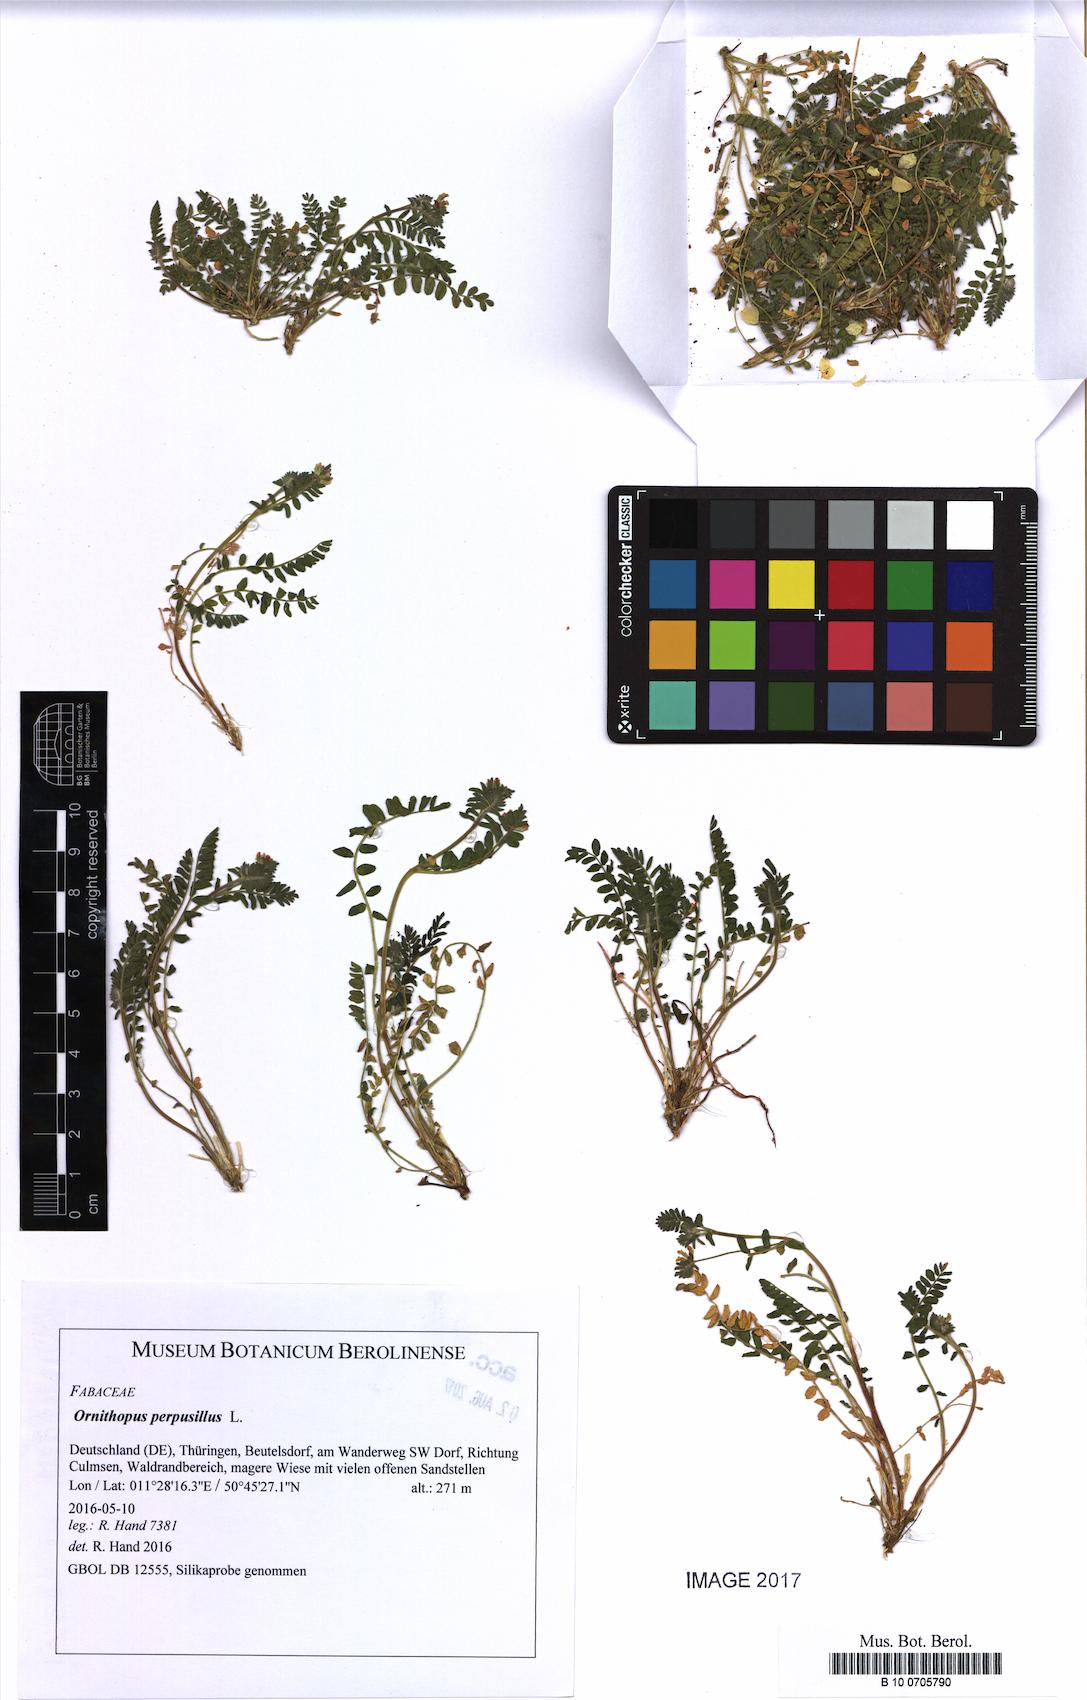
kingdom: Plantae
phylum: Tracheophyta
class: Magnoliopsida
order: Fabales
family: Fabaceae
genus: Ornithopus
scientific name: Ornithopus perpusillus
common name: Bird's-foot
